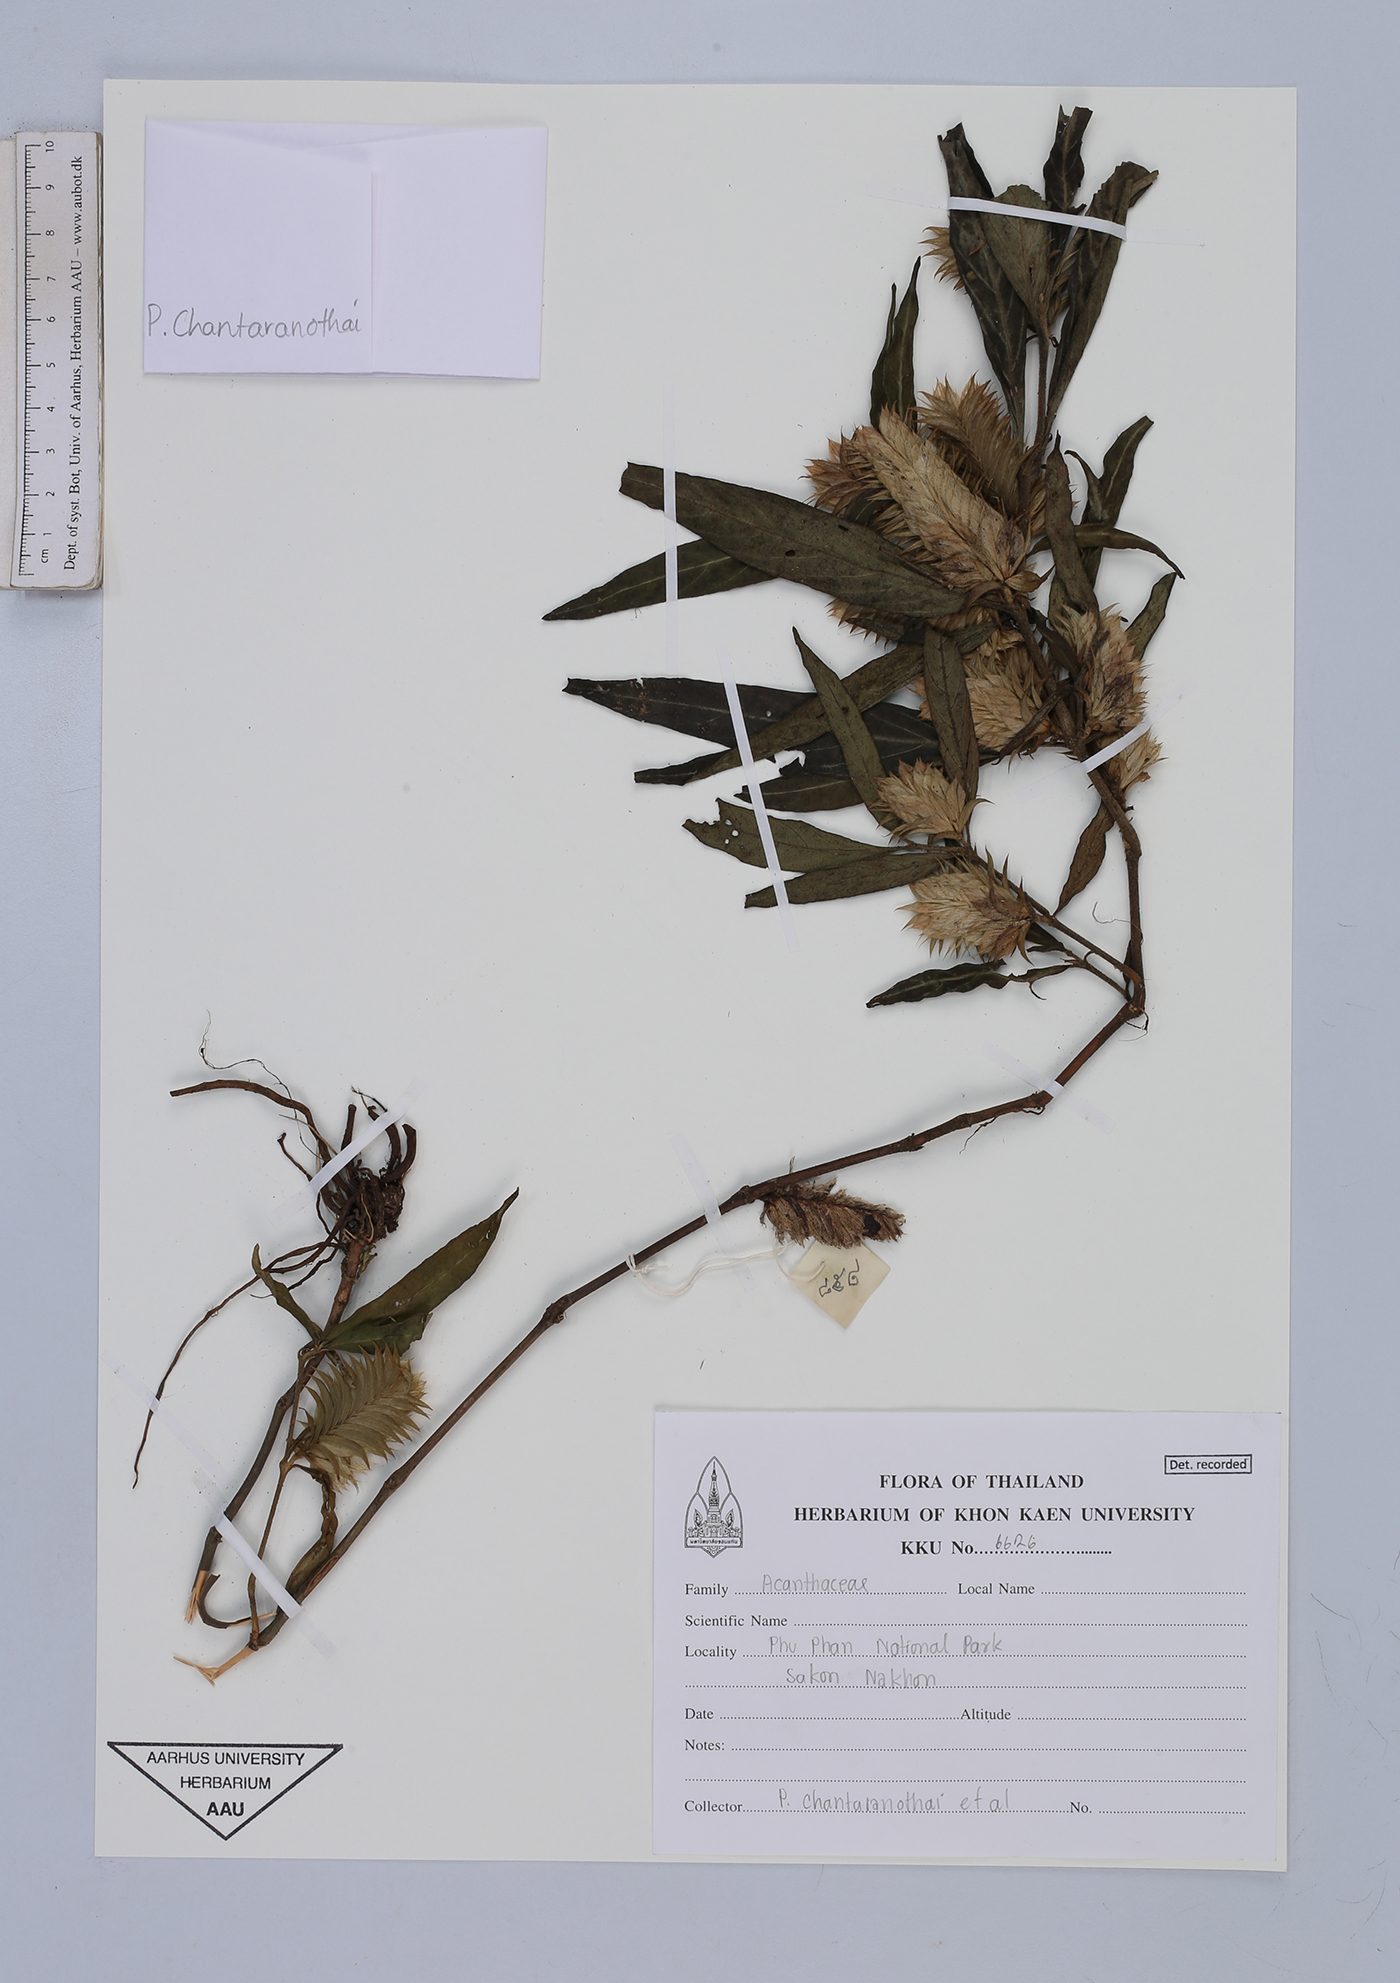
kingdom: Plantae
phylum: Tracheophyta
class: Magnoliopsida
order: Lamiales
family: Acanthaceae
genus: Lepidagathis
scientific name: Lepidagathis chlorostachya
